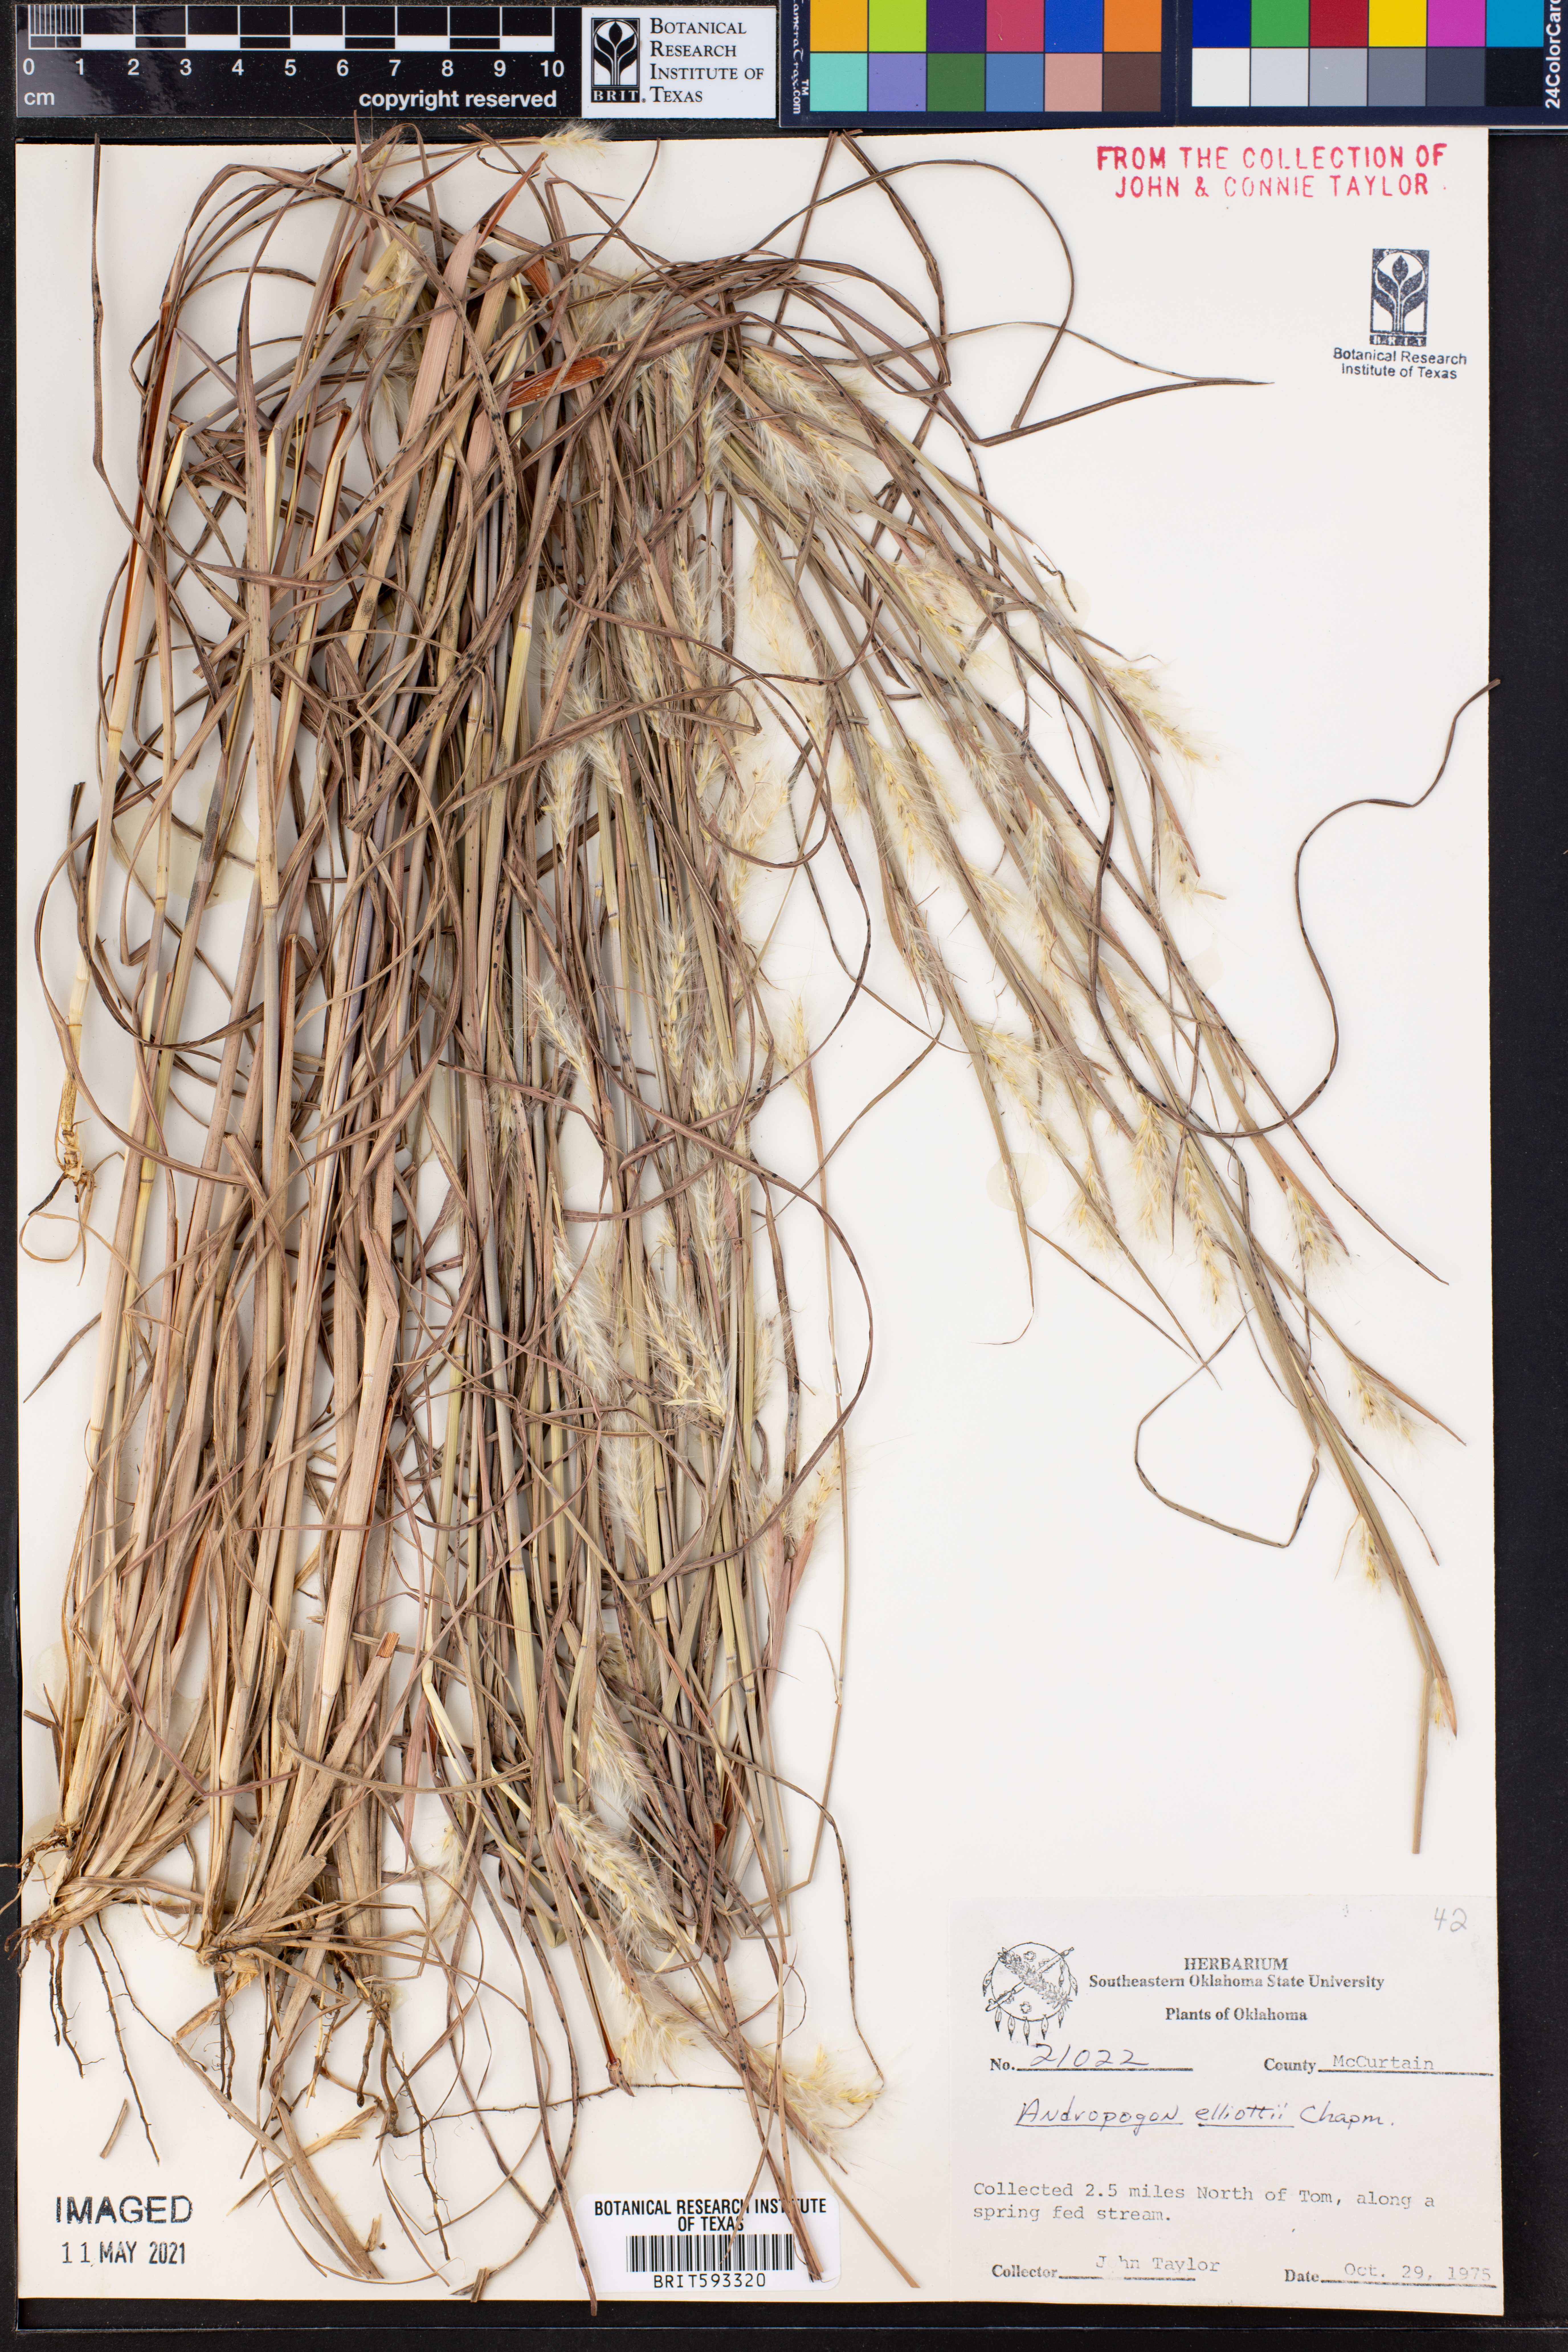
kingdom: Plantae
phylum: Tracheophyta
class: Liliopsida
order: Poales
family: Poaceae
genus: Andropogon
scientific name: Andropogon ternarius
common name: Split bluestem
